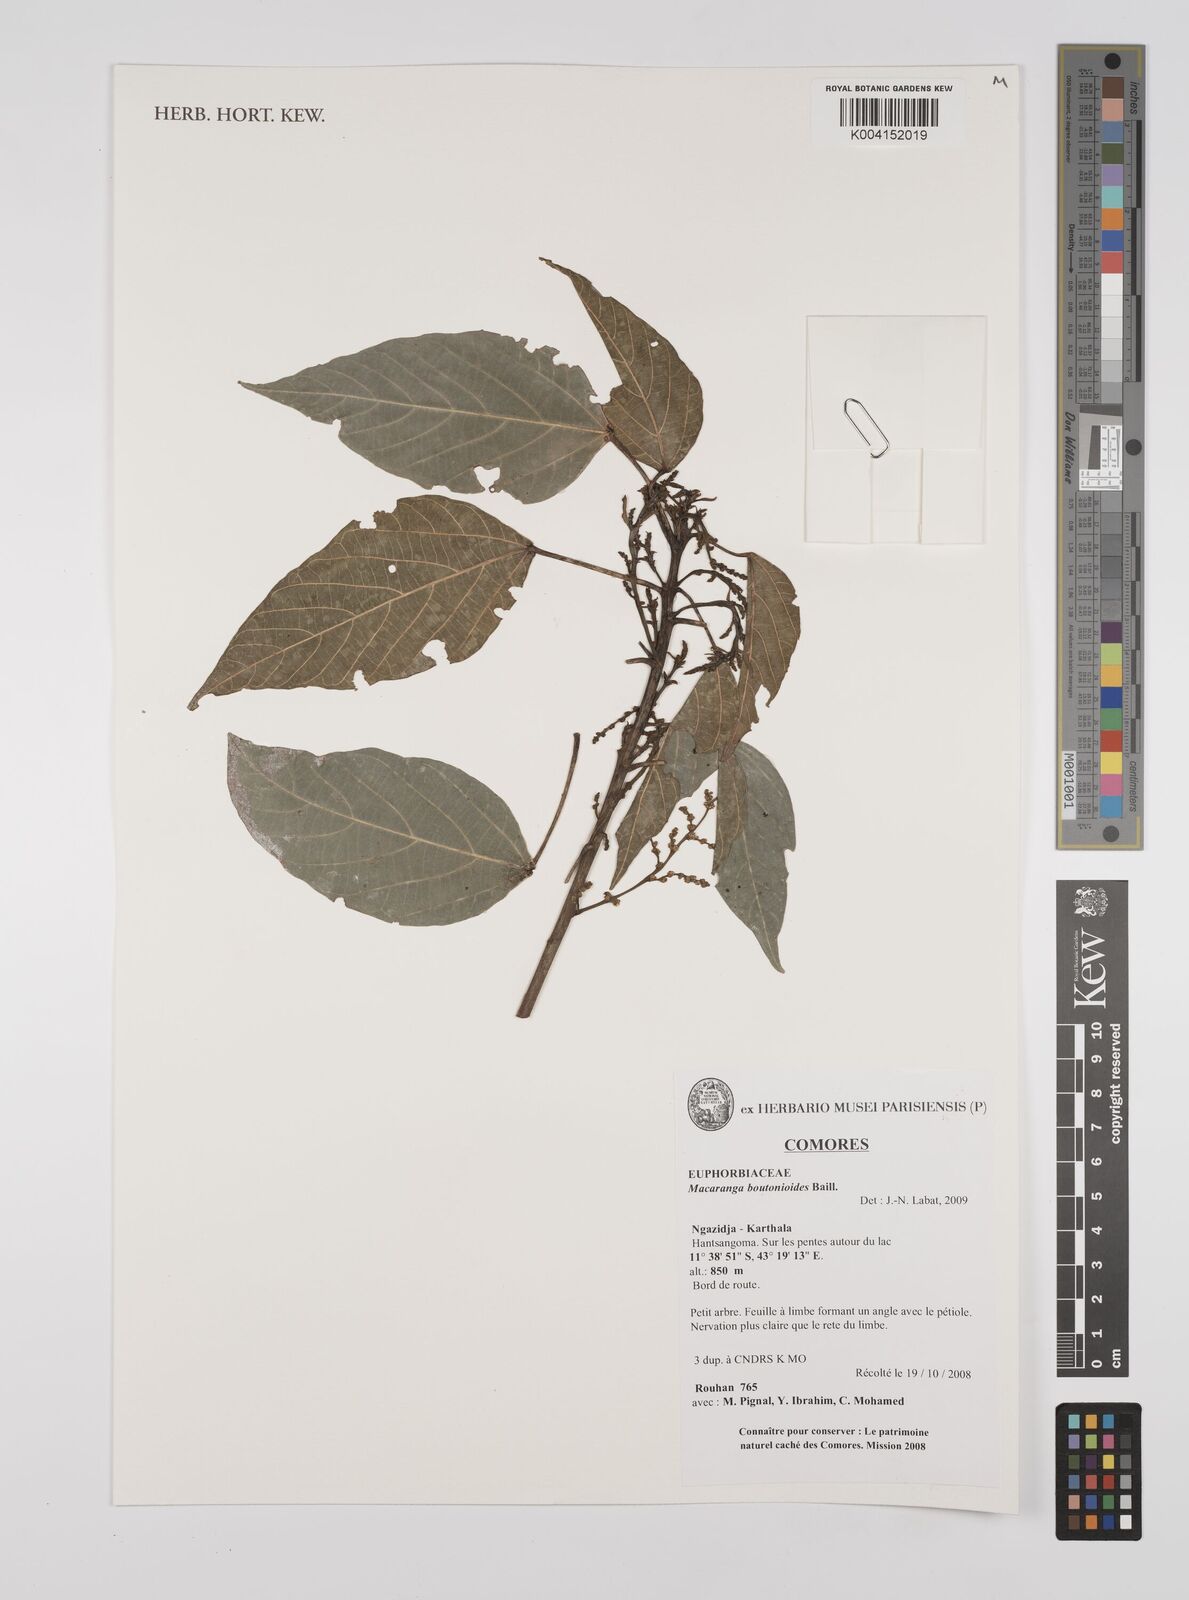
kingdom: Plantae
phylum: Tracheophyta
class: Magnoliopsida
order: Malpighiales
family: Euphorbiaceae
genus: Macaranga
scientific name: Macaranga boutonioides
